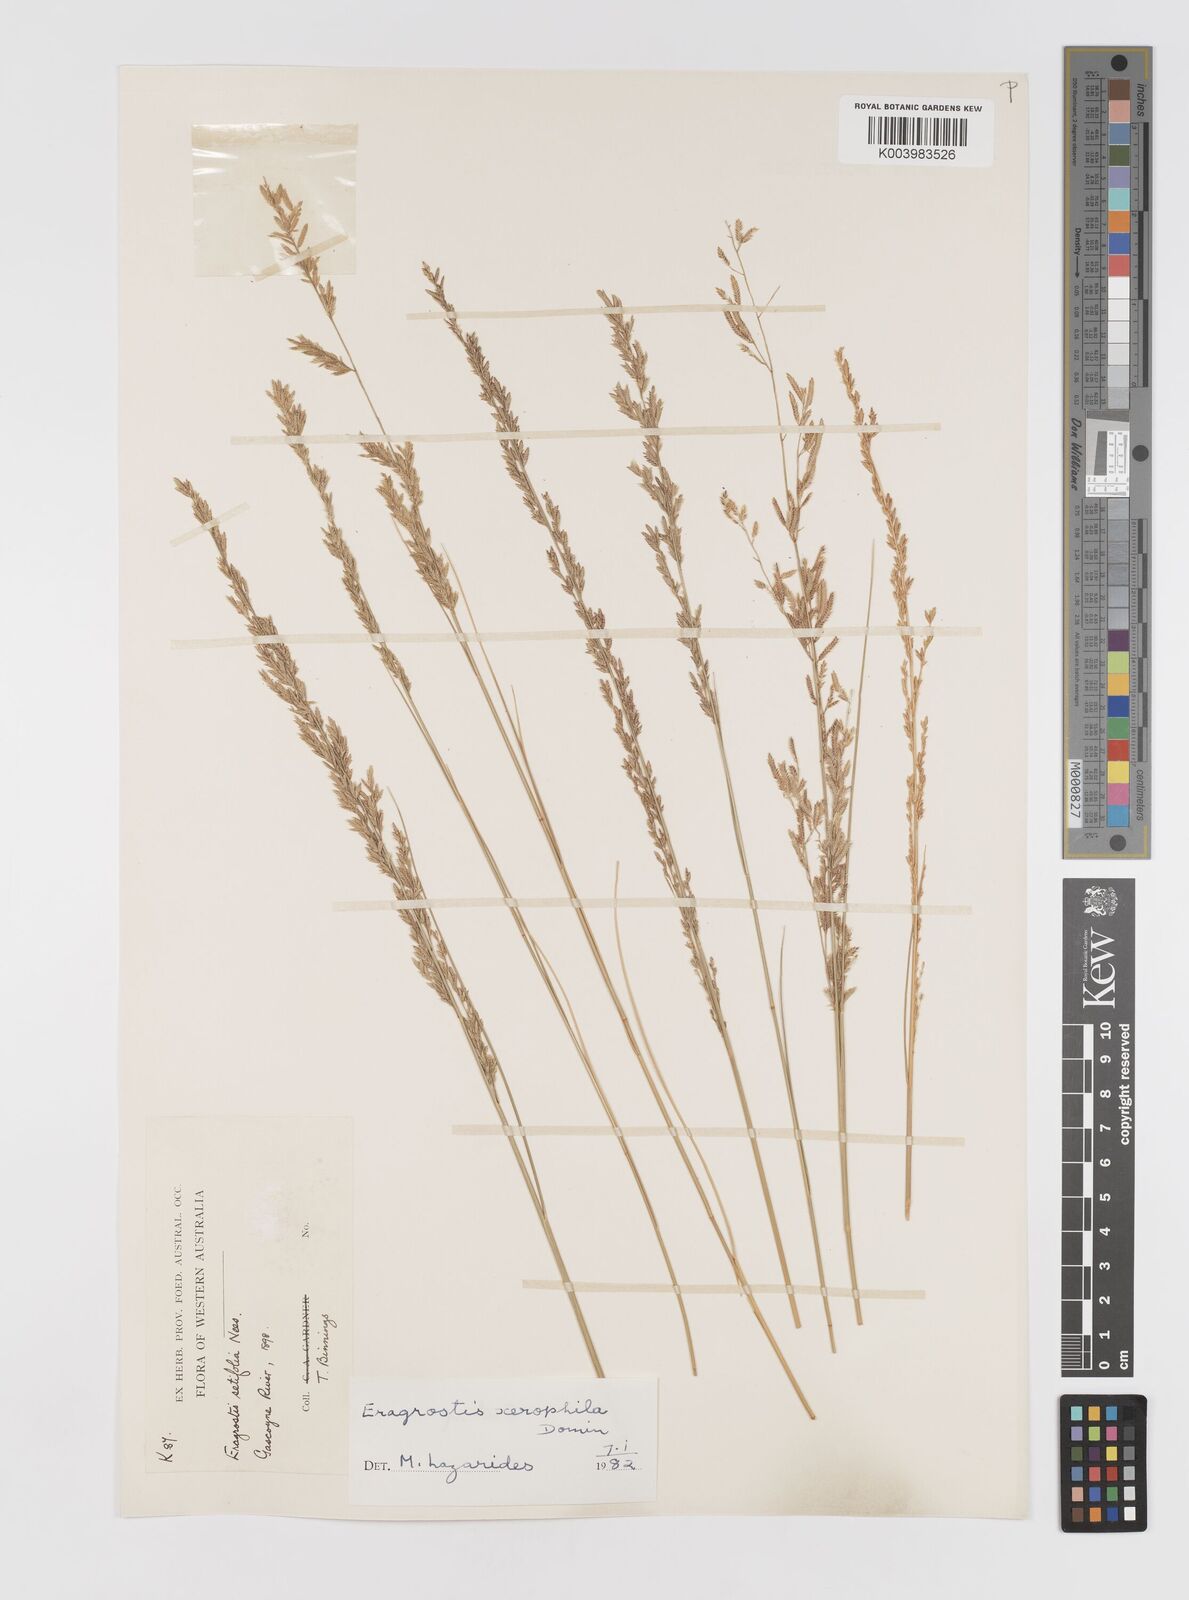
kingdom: Plantae
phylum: Tracheophyta
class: Liliopsida
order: Poales
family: Poaceae
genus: Eragrostis
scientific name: Eragrostis xerophila
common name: Wire wandarrie grass
